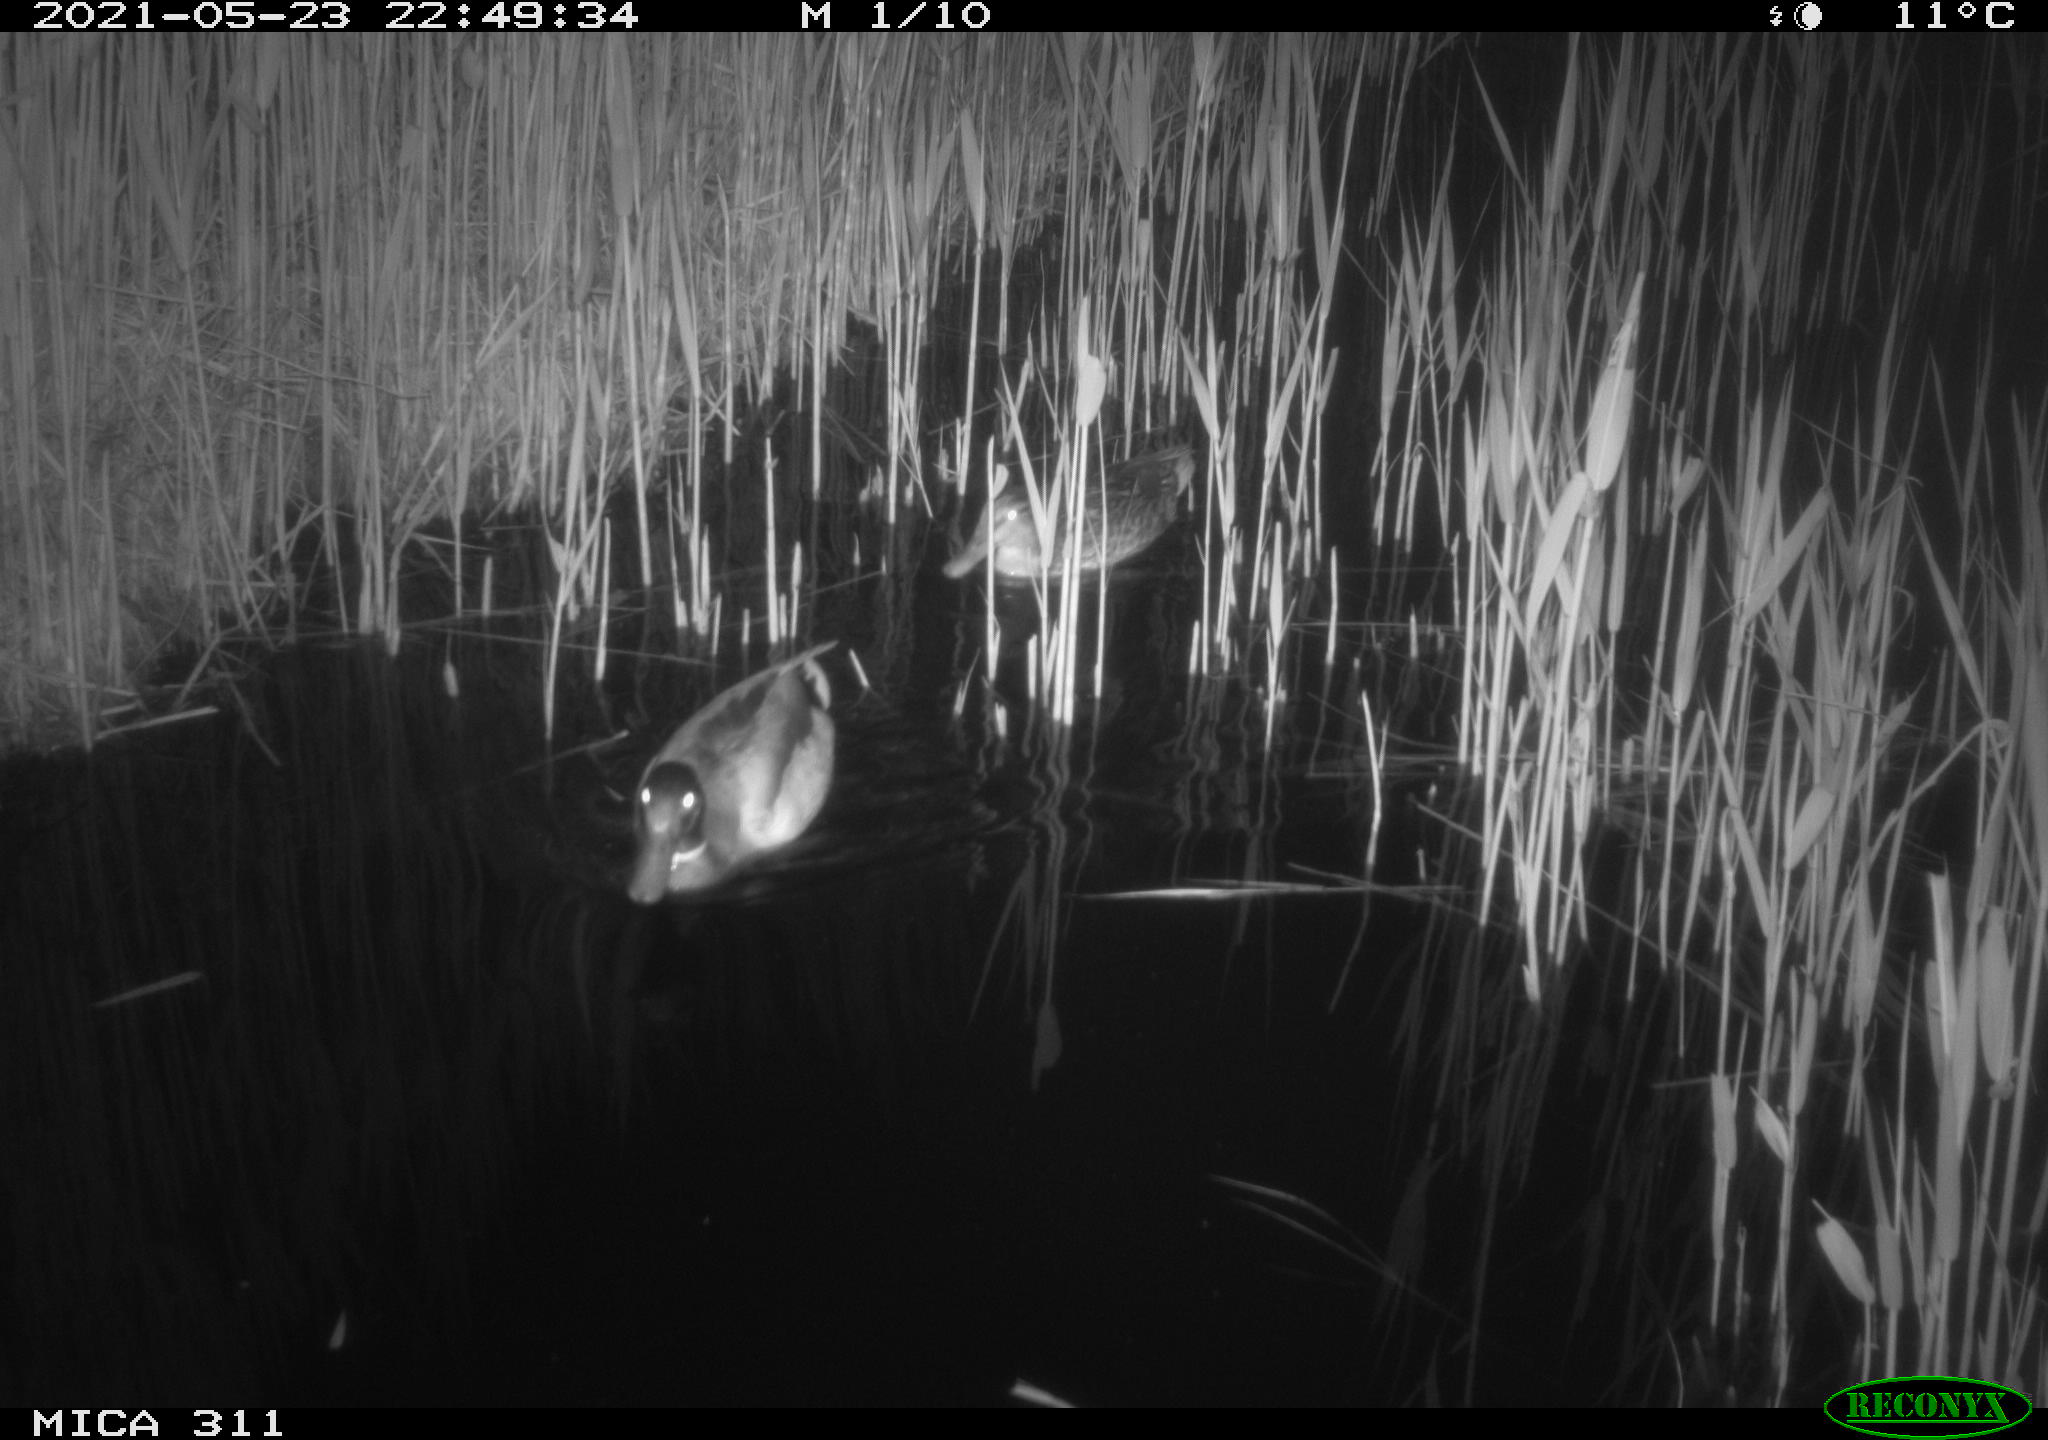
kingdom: Animalia
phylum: Chordata
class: Aves
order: Anseriformes
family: Anatidae
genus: Anas
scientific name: Anas
